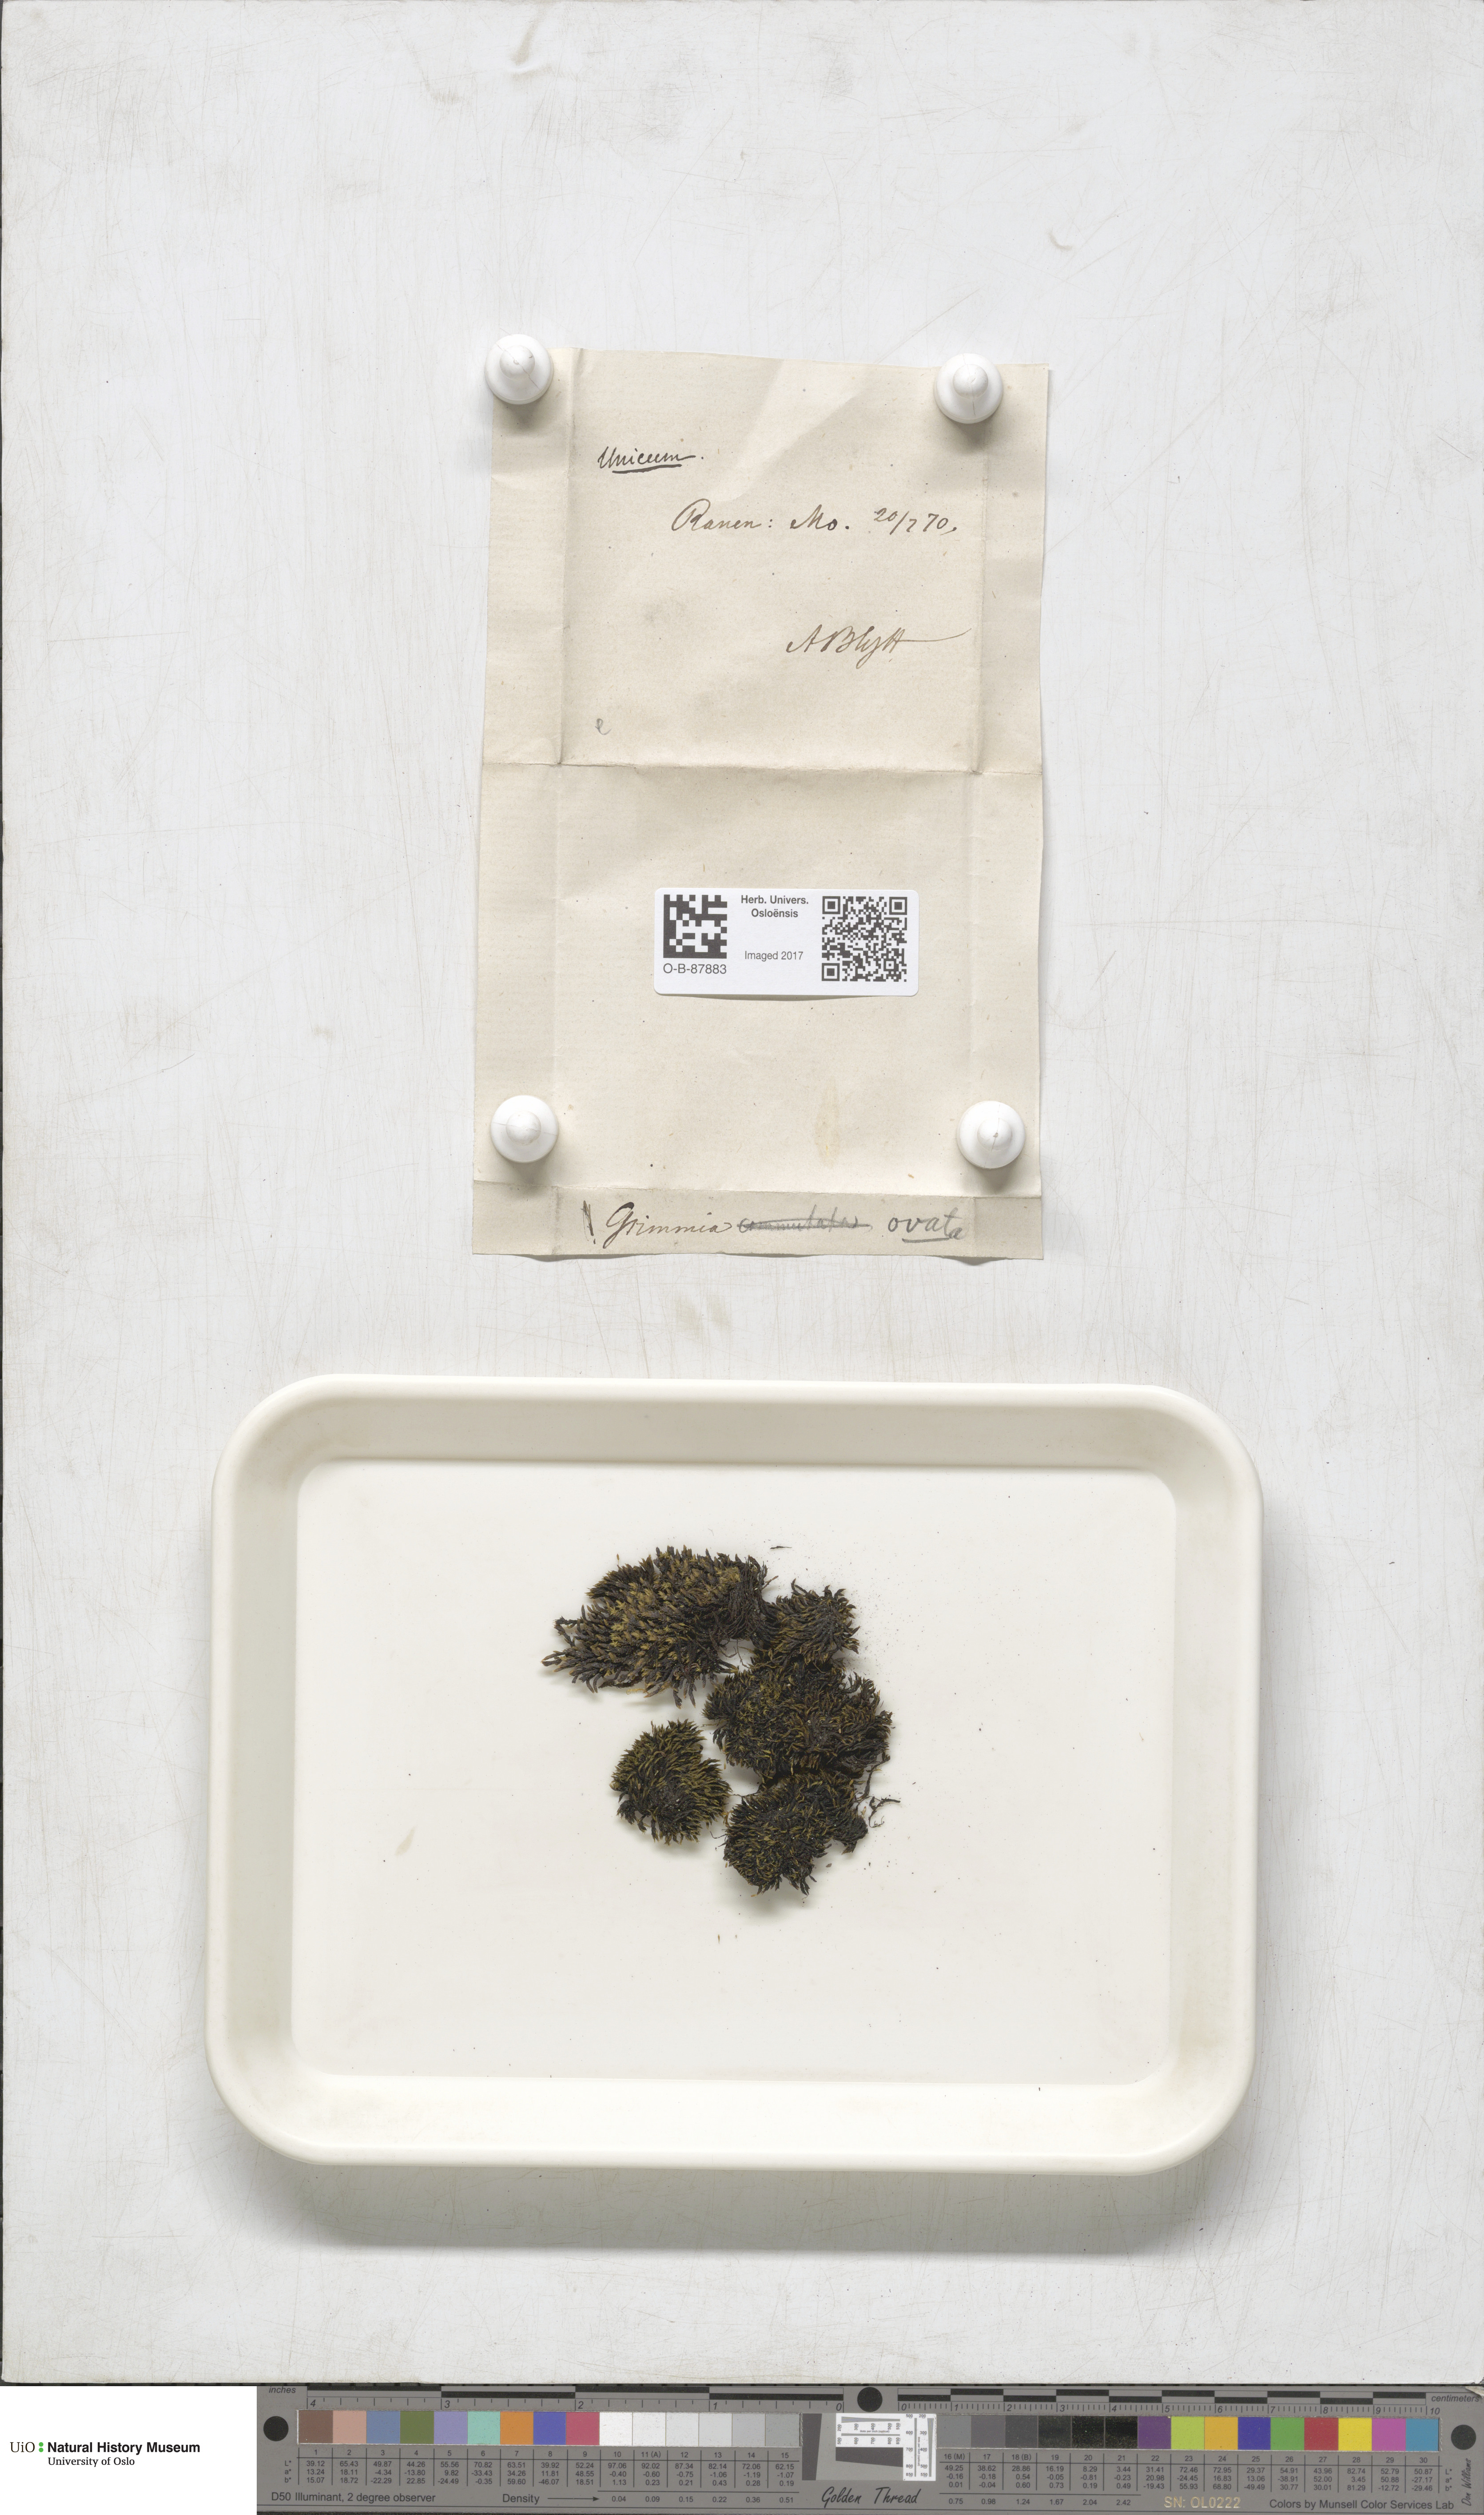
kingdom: Plantae
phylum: Bryophyta
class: Bryopsida
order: Grimmiales
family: Grimmiaceae
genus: Grimmia
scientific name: Grimmia ovalis
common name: Oval grimmia
